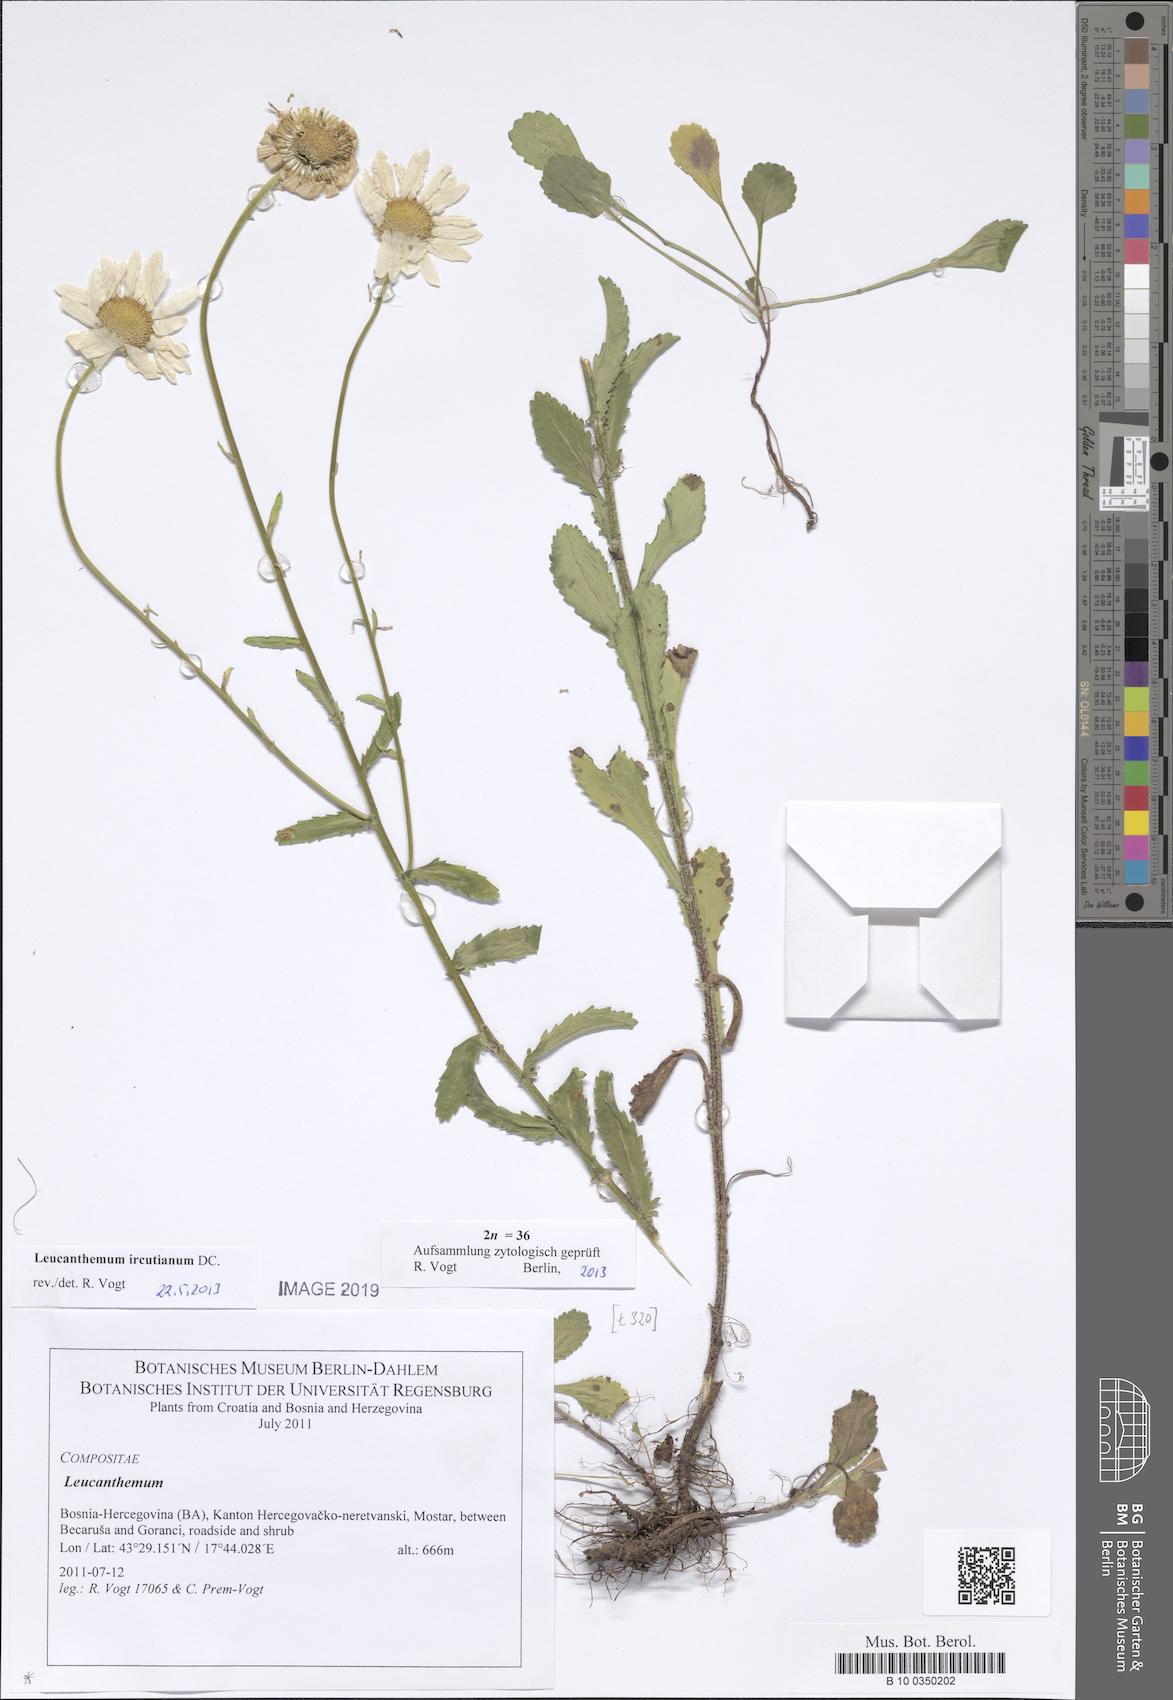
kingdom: Plantae
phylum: Tracheophyta
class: Magnoliopsida
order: Asterales
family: Asteraceae
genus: Leucanthemum
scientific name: Leucanthemum ircutianum
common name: Daisy
